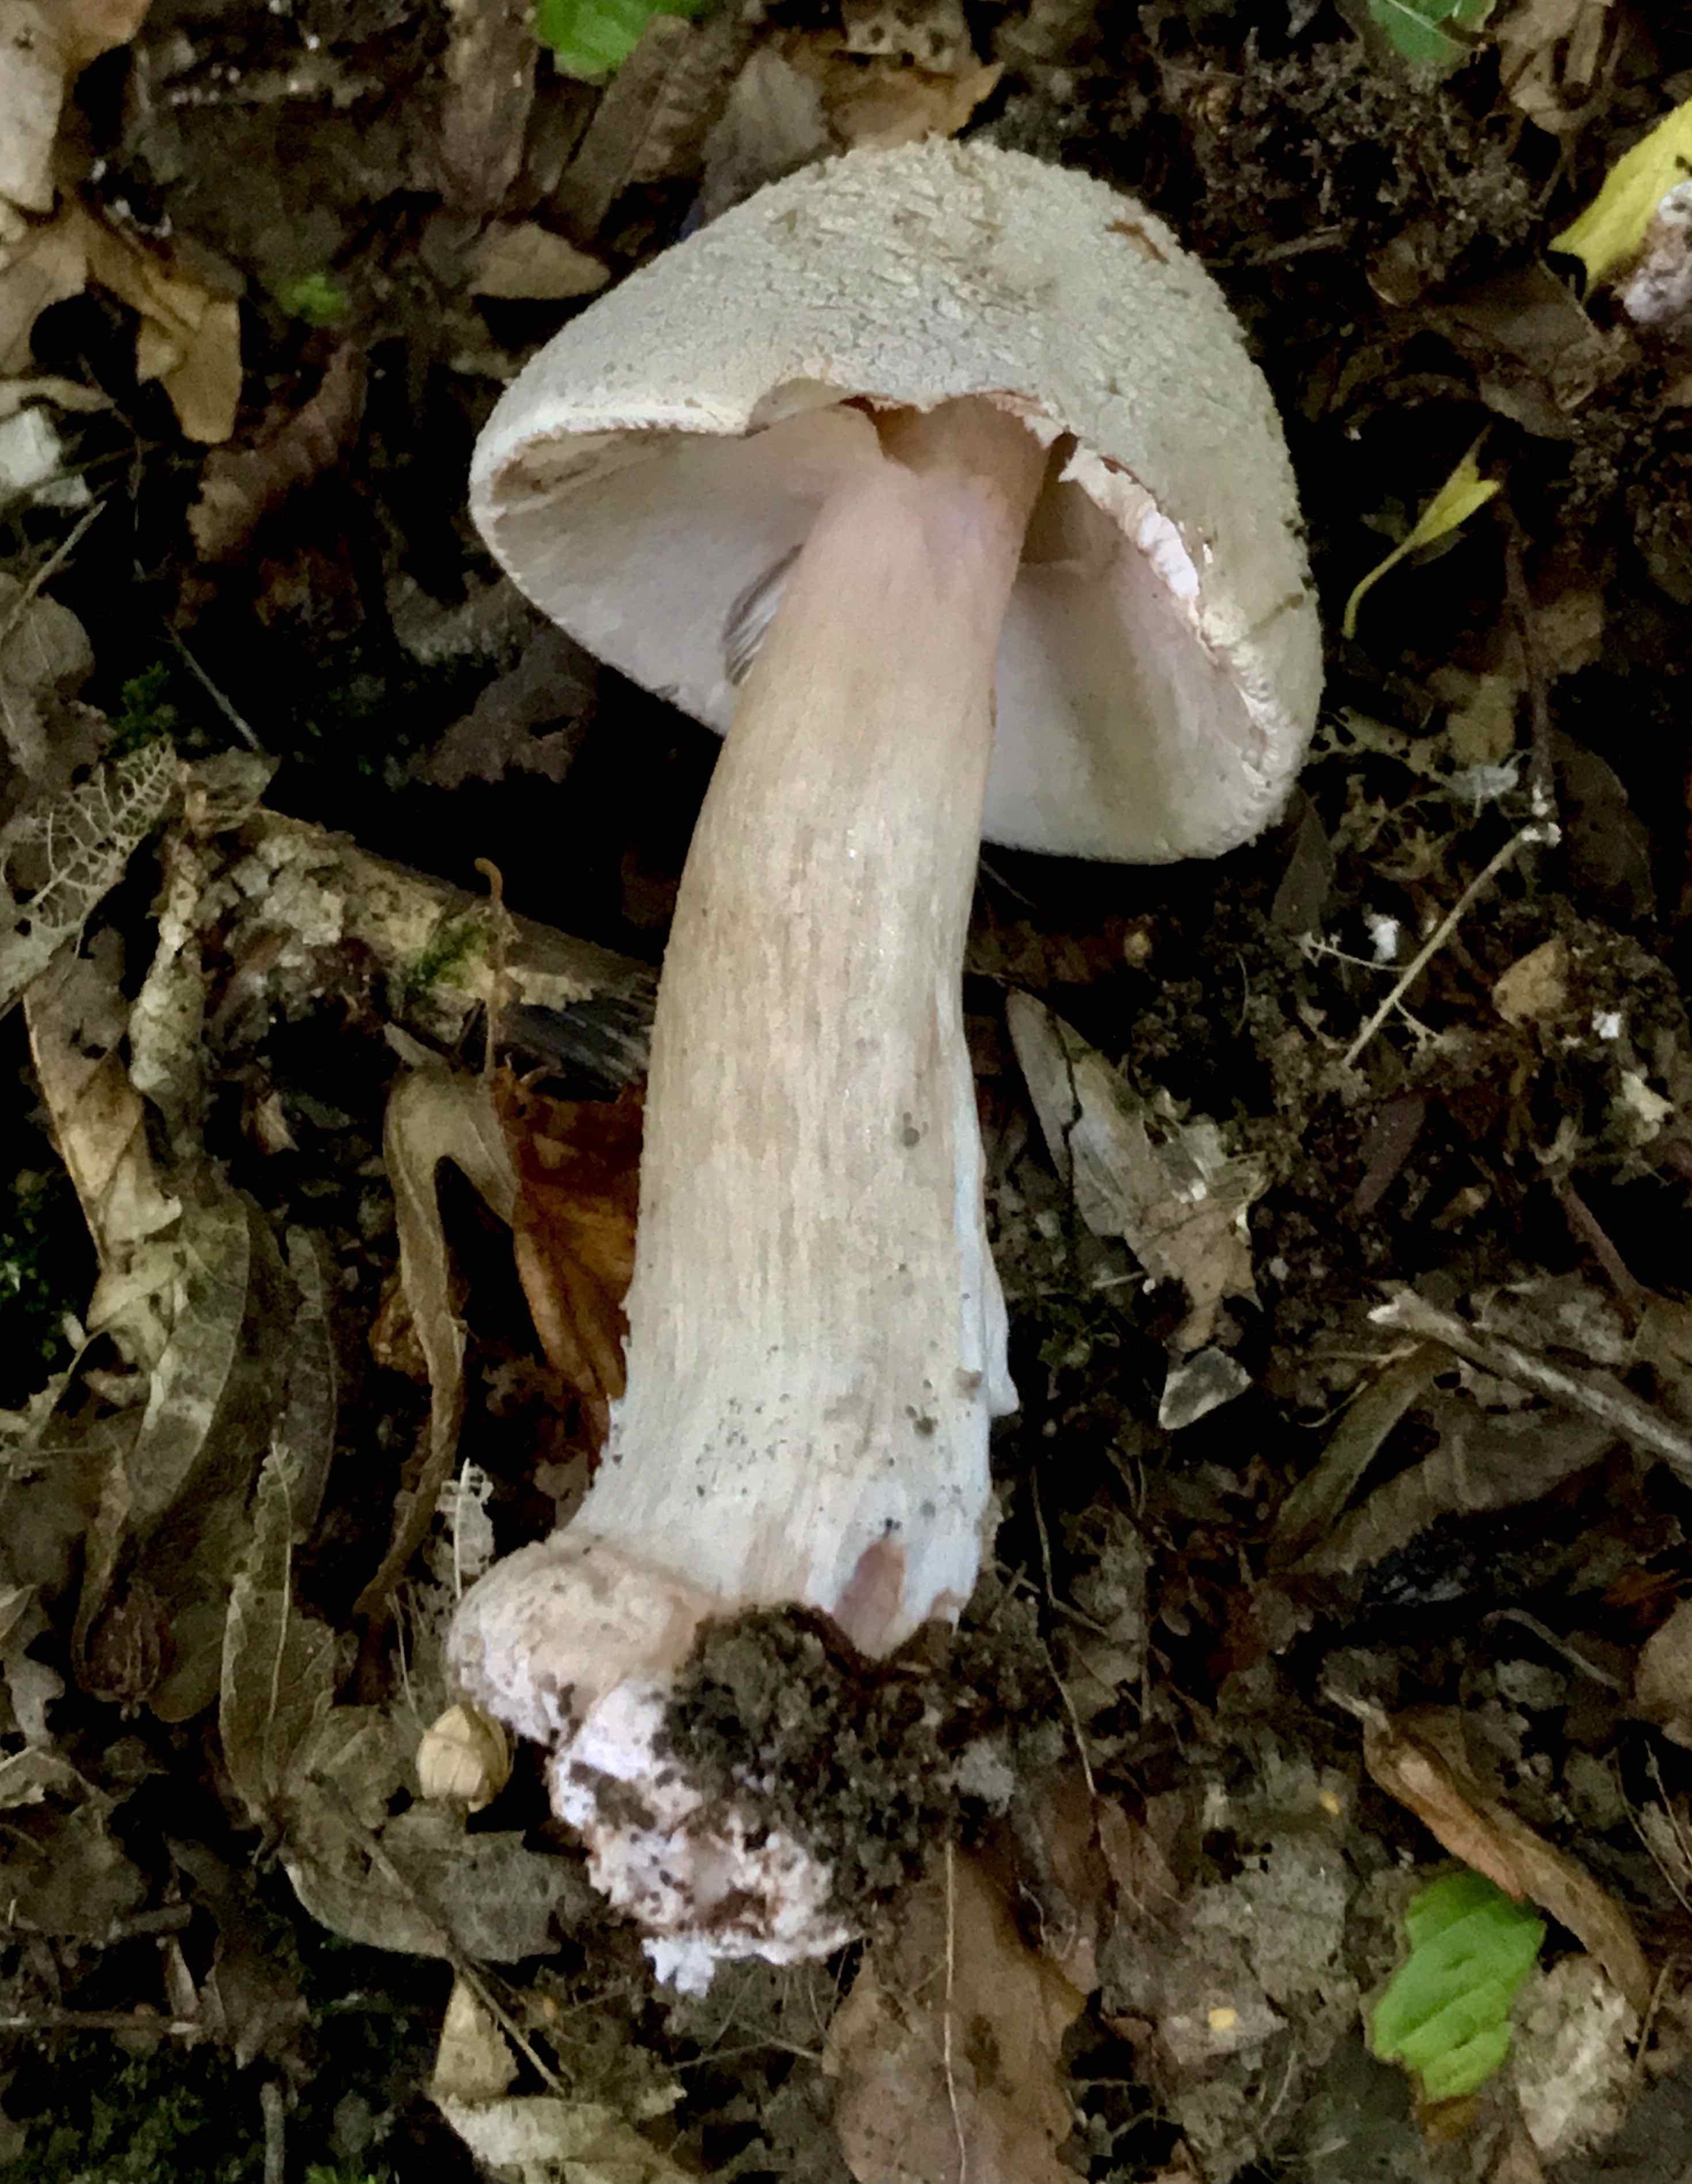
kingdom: Fungi
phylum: Basidiomycota
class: Agaricomycetes
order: Agaricales
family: Amanitaceae
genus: Amanita
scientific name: Amanita rubescens
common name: rødmende fluesvamp
